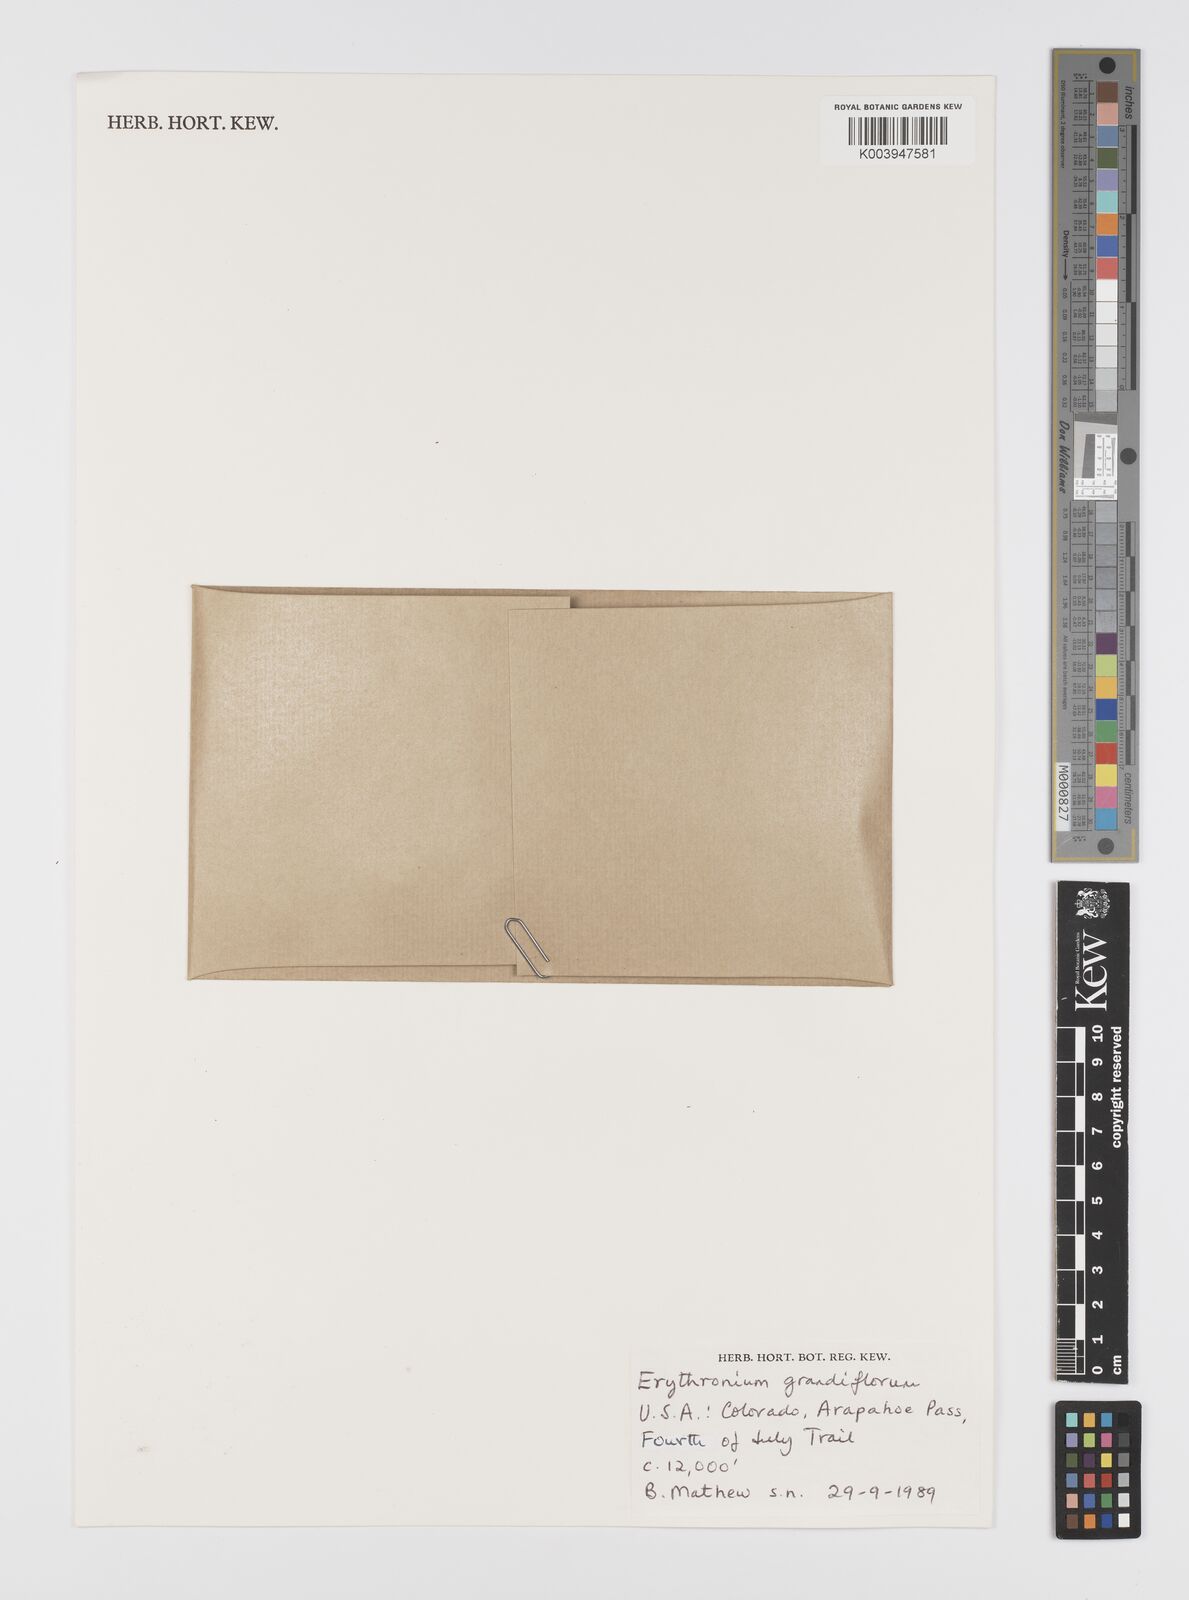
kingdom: Plantae
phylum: Tracheophyta
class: Liliopsida
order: Liliales
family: Liliaceae
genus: Erythronium
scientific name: Erythronium grandiflorum
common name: Avalanche-lily
